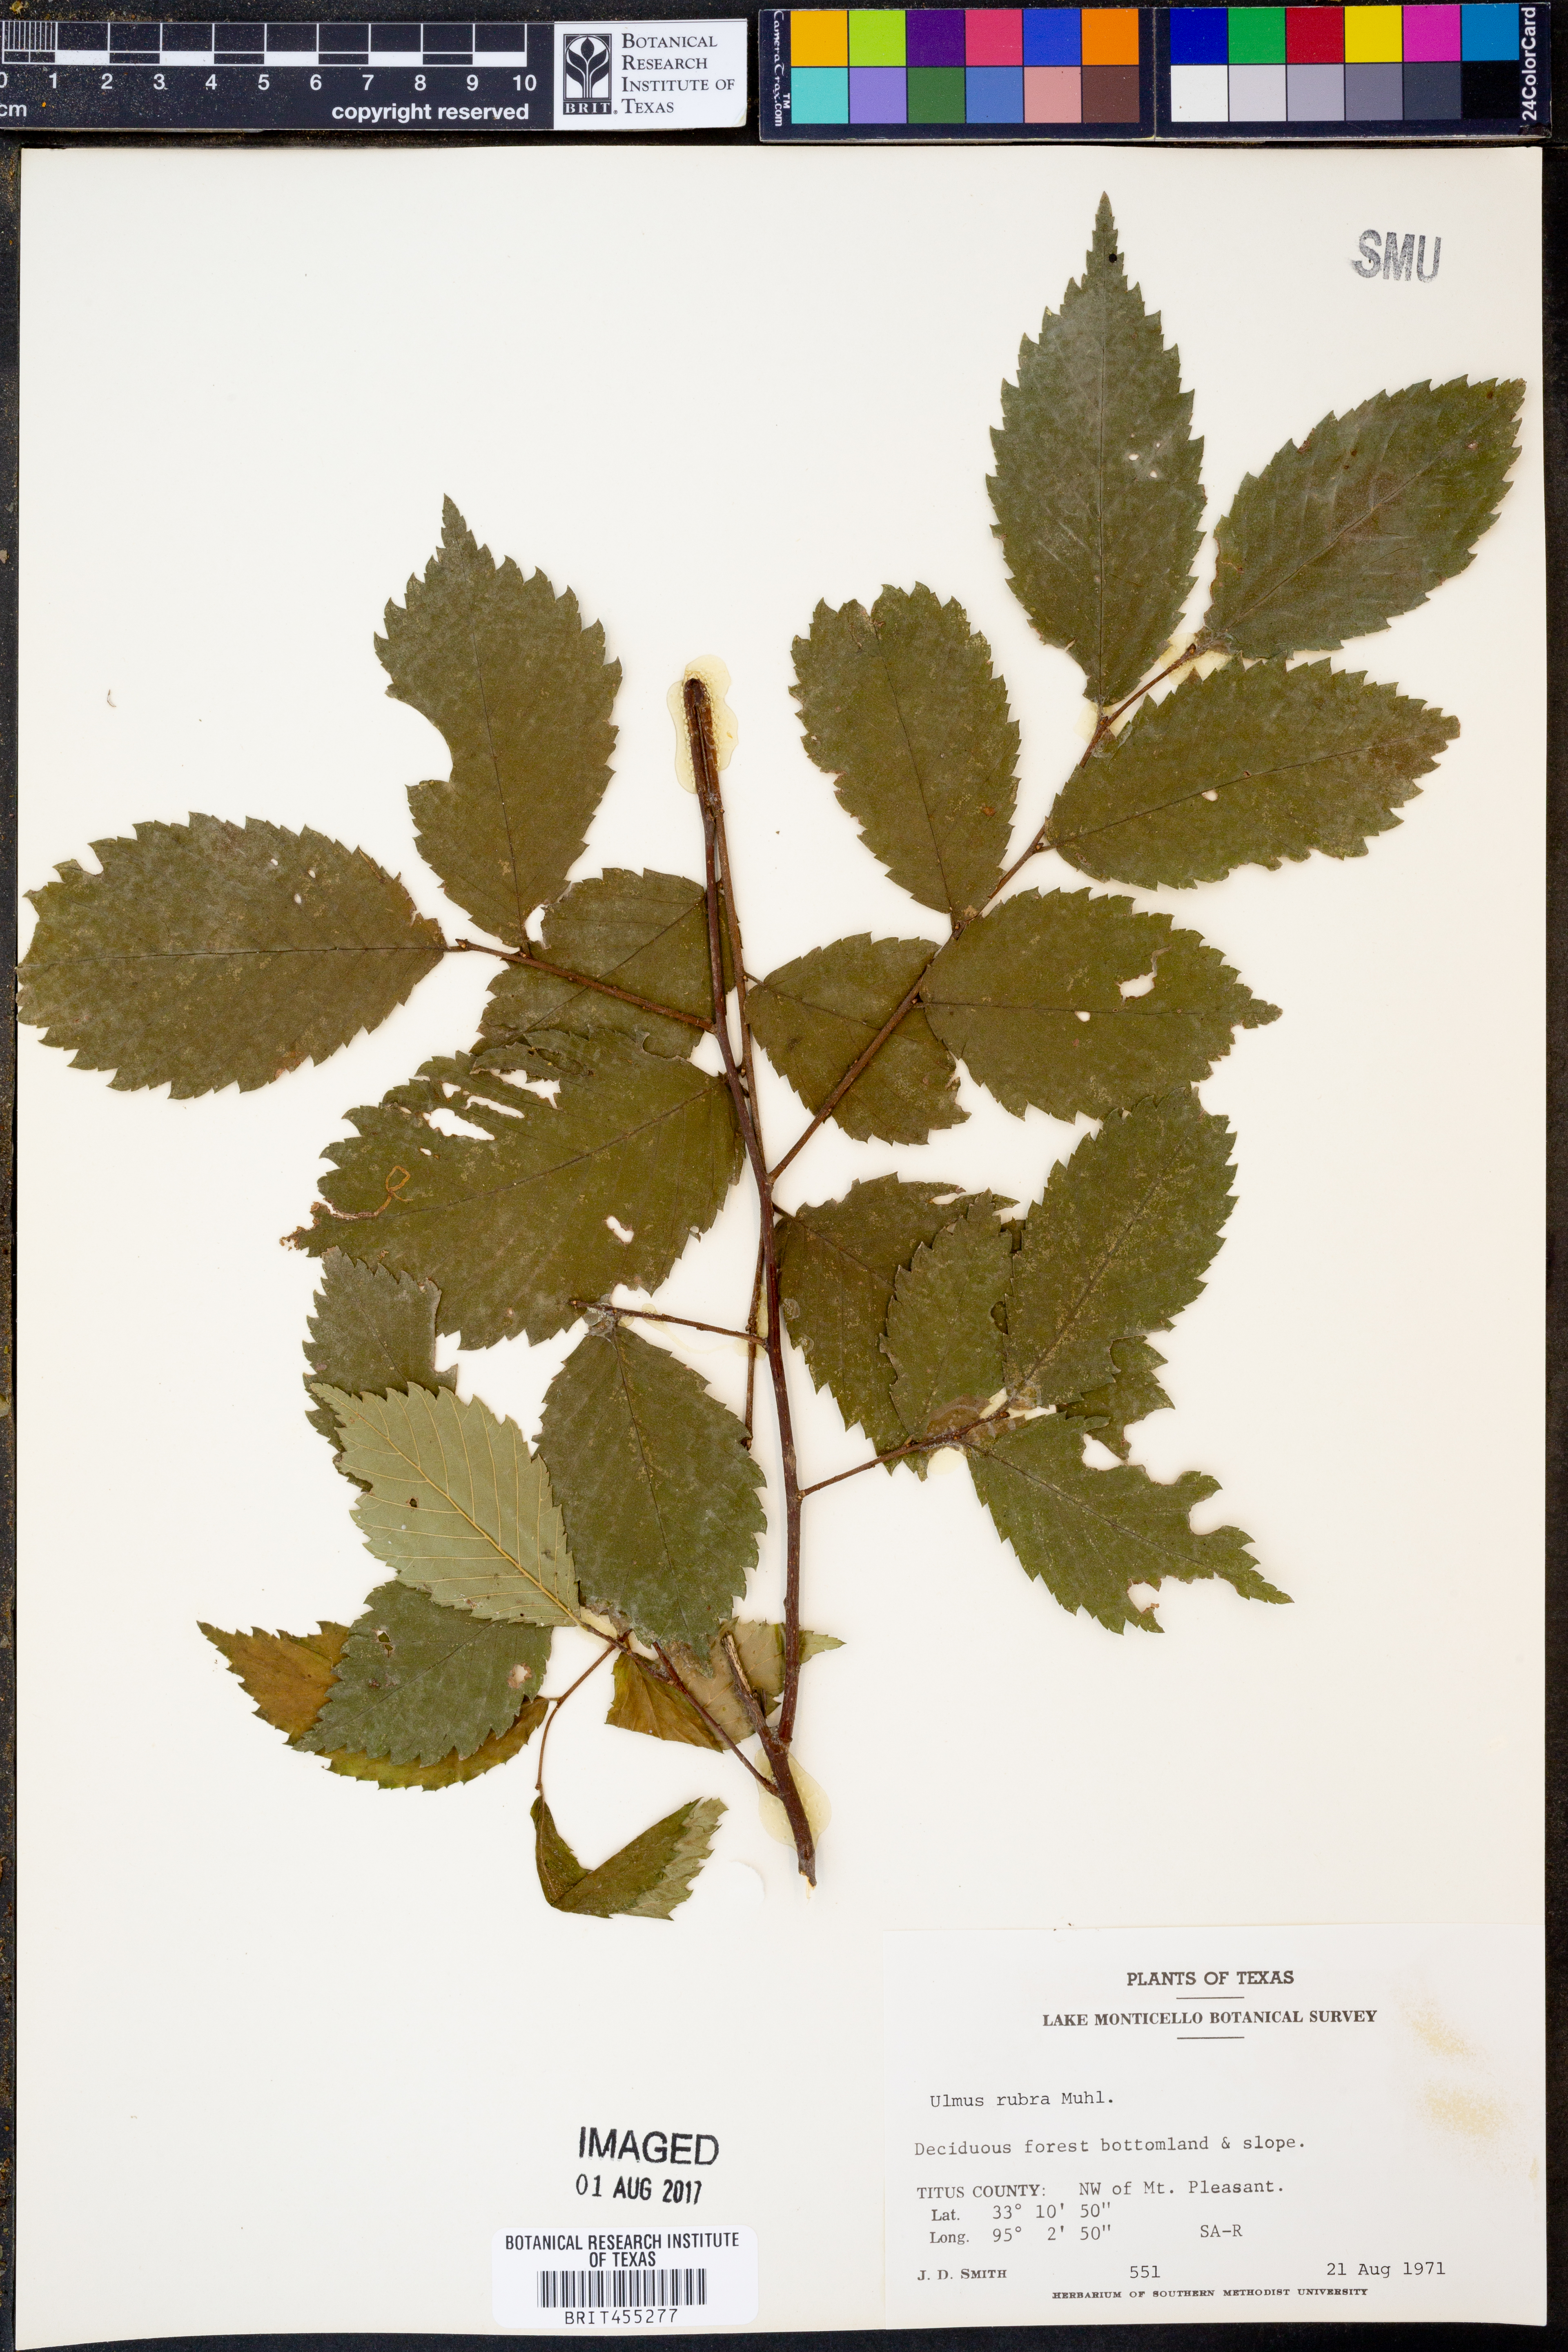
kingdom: Plantae
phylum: Tracheophyta
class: Magnoliopsida
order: Rosales
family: Ulmaceae
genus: Ulmus
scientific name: Ulmus rubra
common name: Slippery elm
